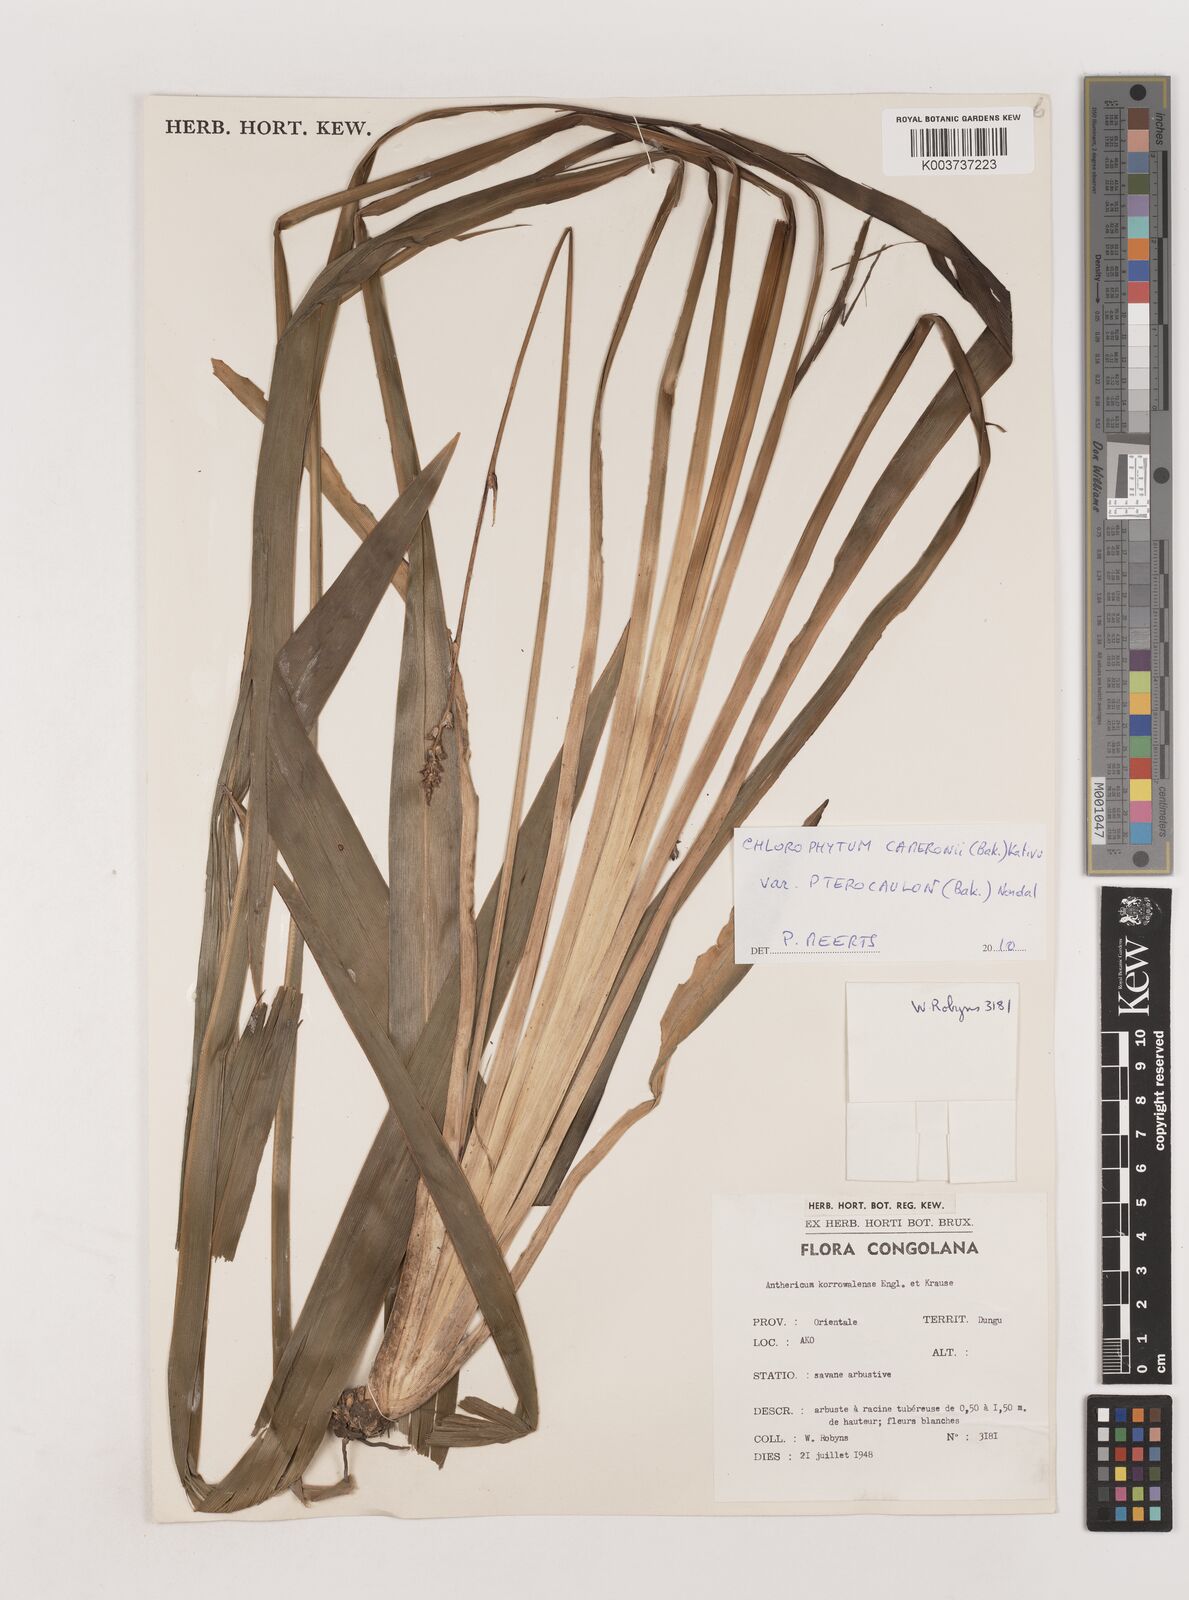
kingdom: Plantae
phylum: Tracheophyta
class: Liliopsida
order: Asparagales
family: Asparagaceae
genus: Chlorophytum
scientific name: Chlorophytum cameronii
